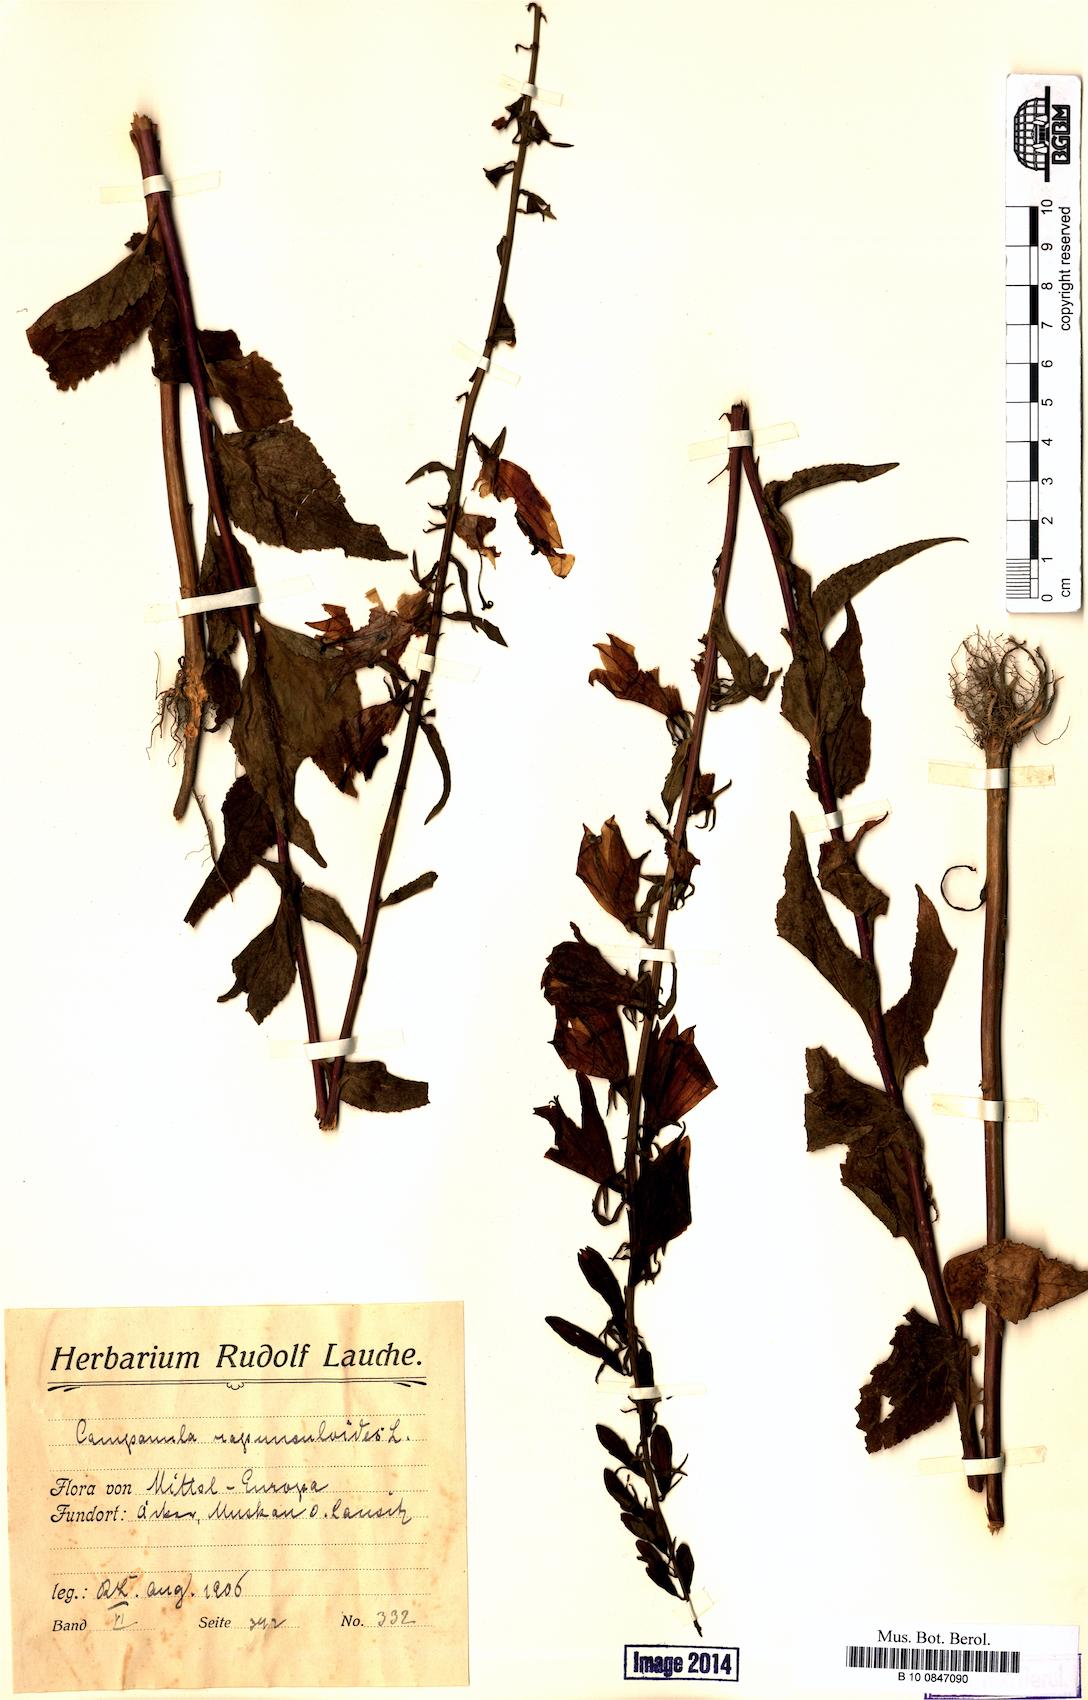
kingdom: Plantae
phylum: Tracheophyta
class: Magnoliopsida
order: Asterales
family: Campanulaceae
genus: Campanula
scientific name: Campanula rapunculoides
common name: Creeping bellflower
